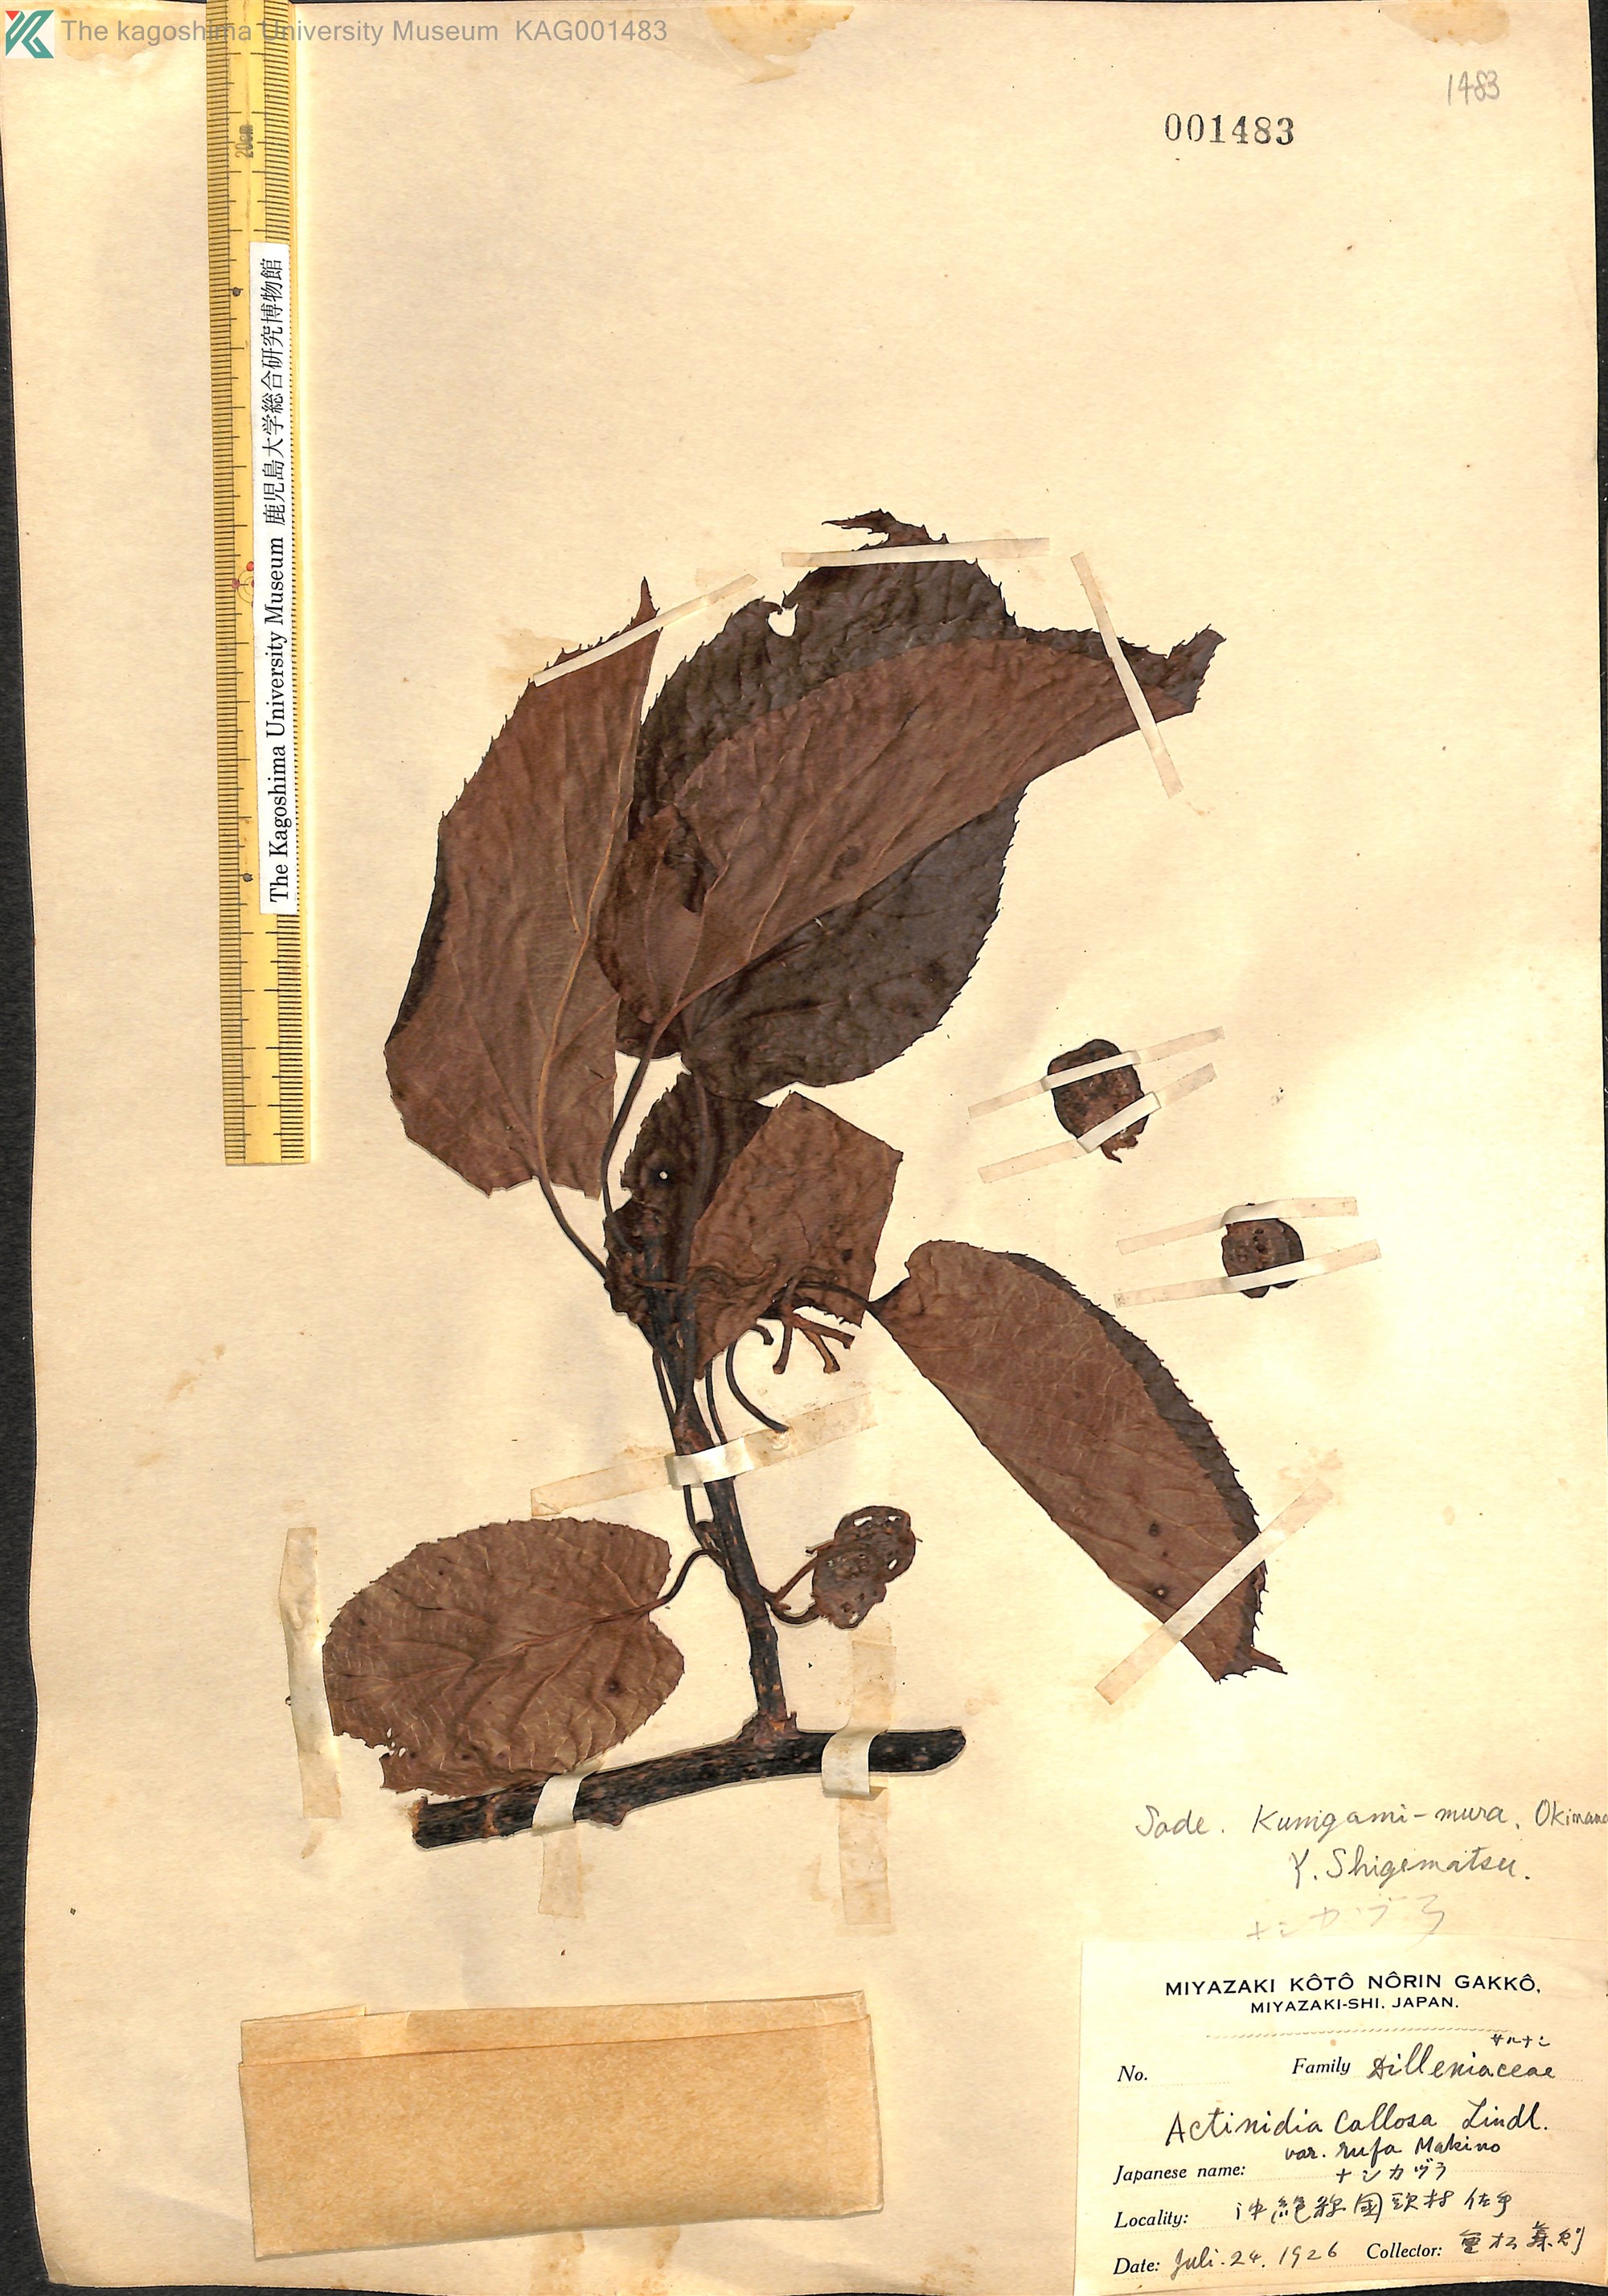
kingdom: Plantae
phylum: Tracheophyta
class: Magnoliopsida
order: Ericales
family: Actinidiaceae
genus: Actinidia
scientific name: Actinidia rufa
